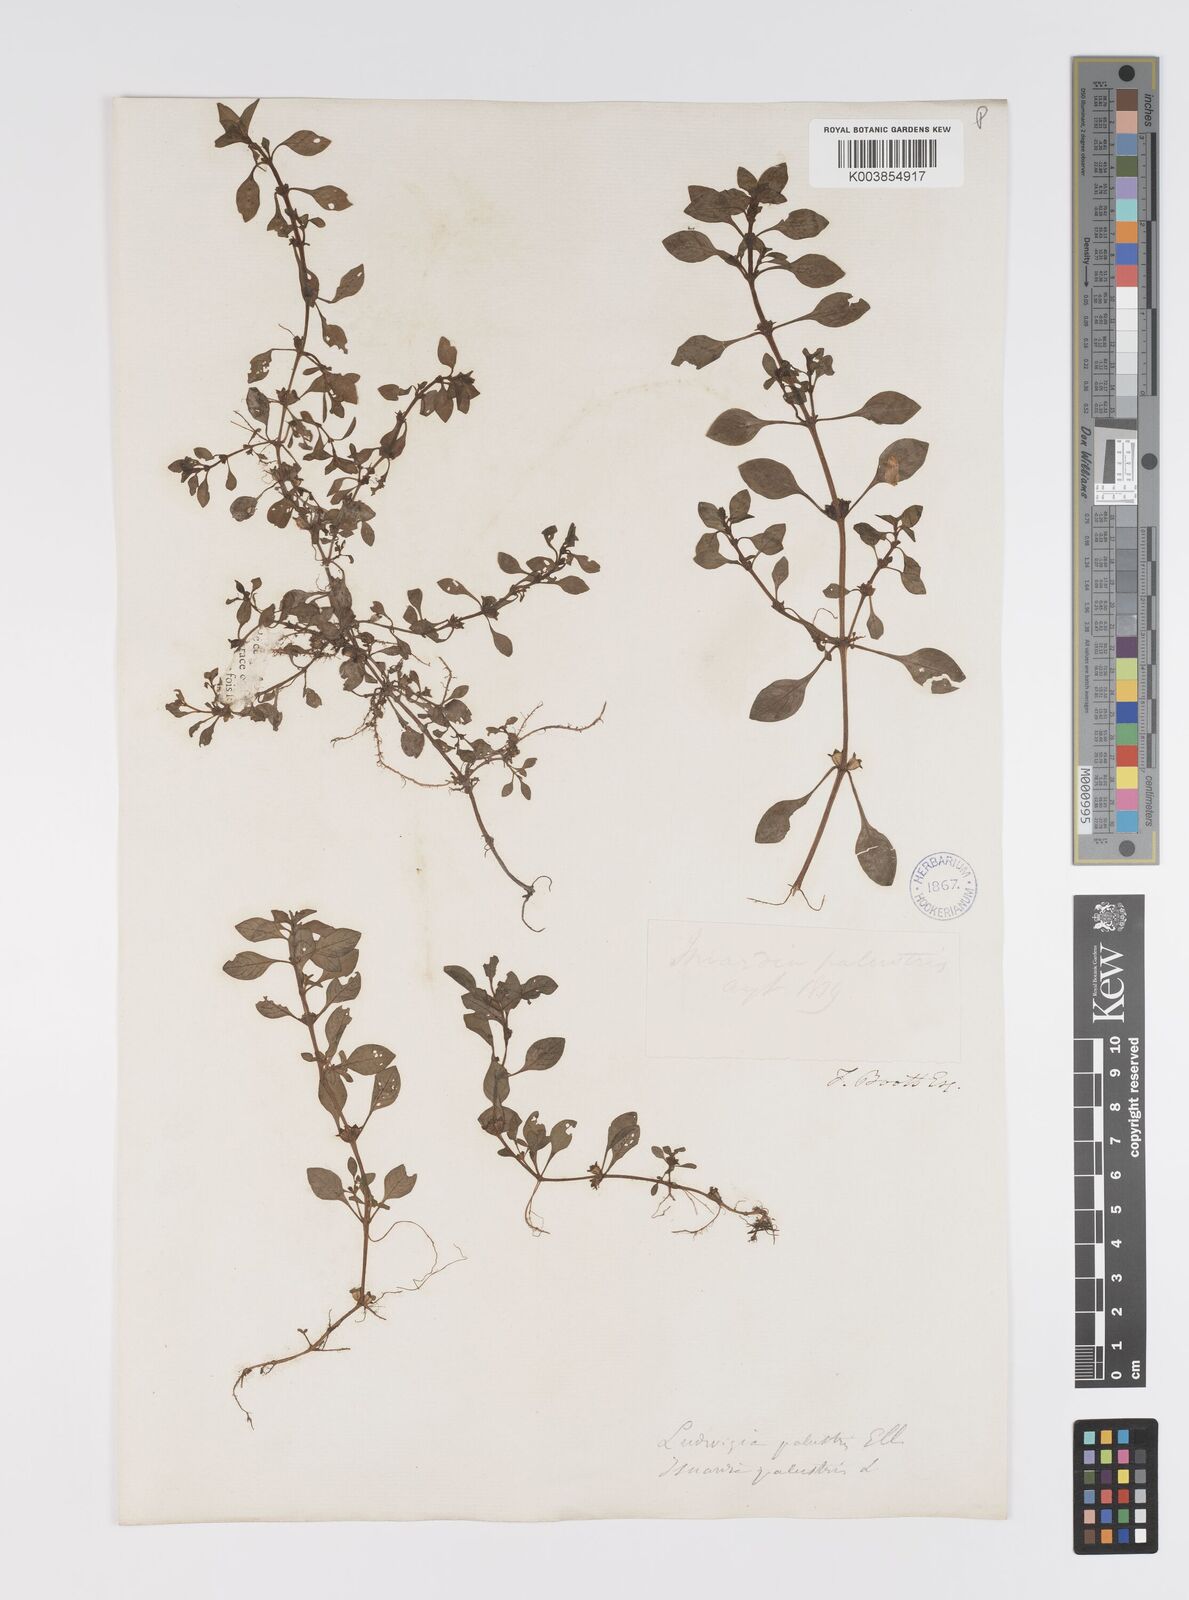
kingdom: Plantae
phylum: Tracheophyta
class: Magnoliopsida
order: Myrtales
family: Onagraceae
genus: Ludwigia
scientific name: Ludwigia palustris
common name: Hampshire-purslane
